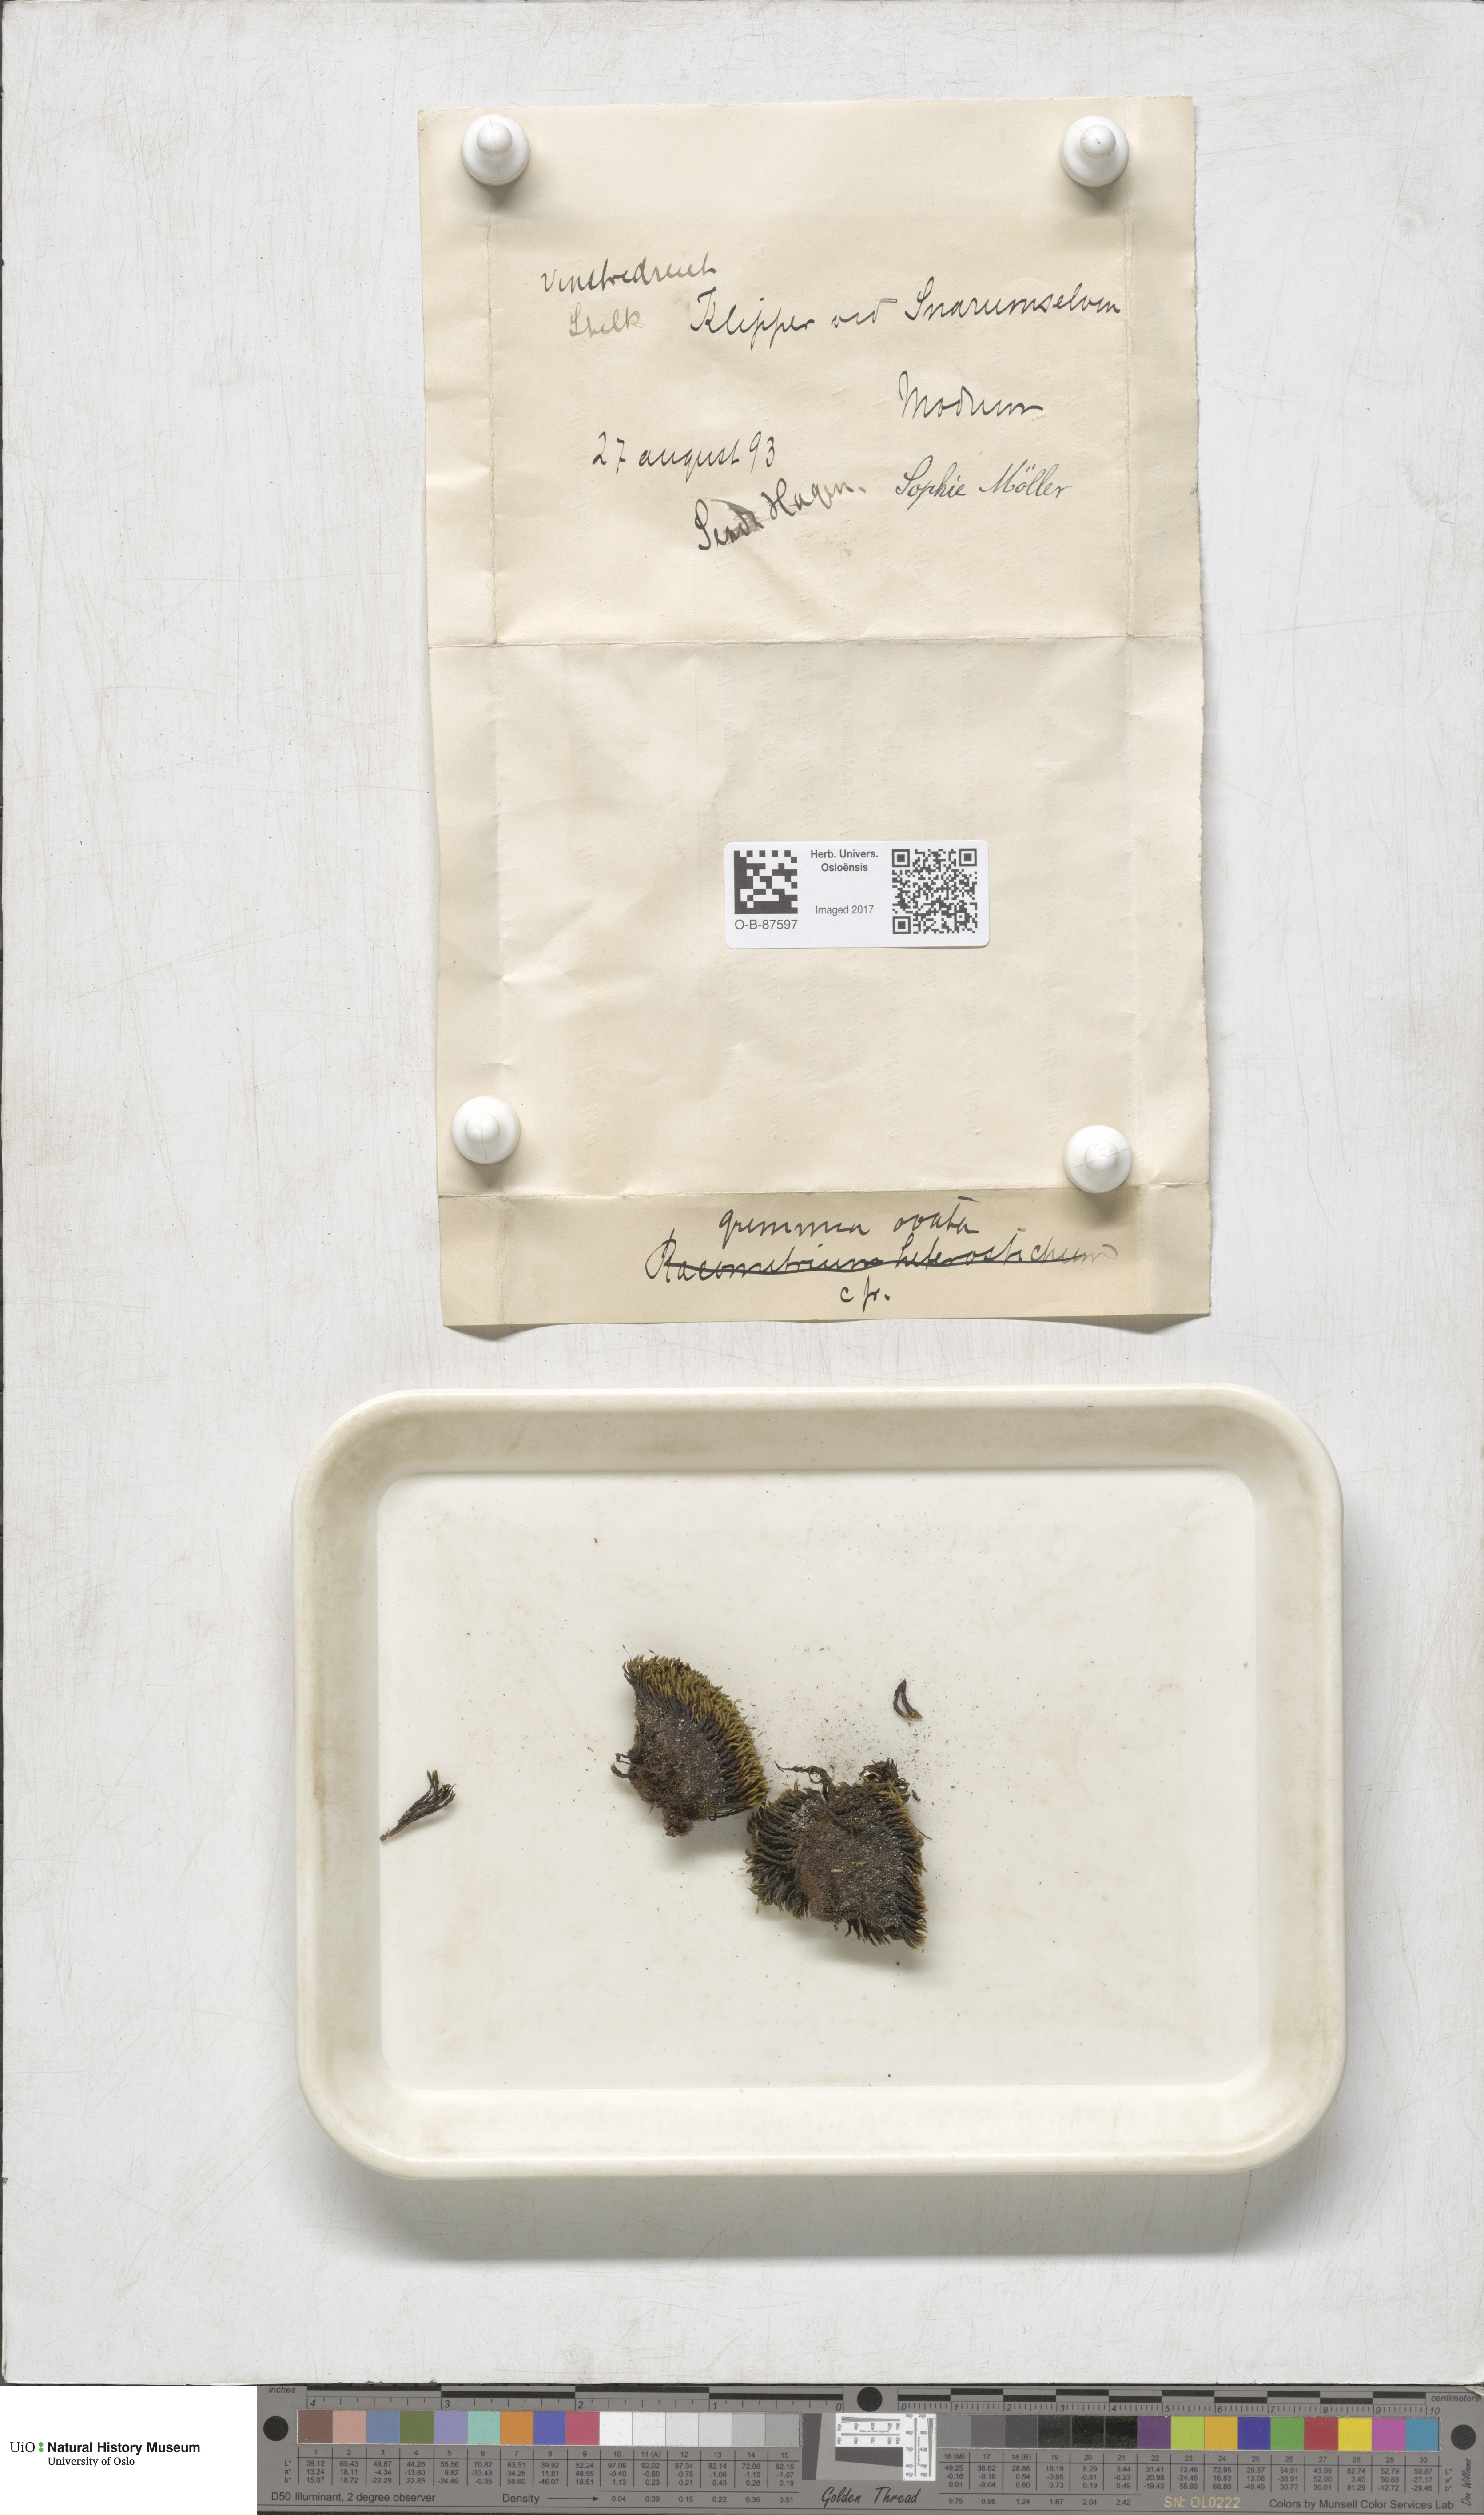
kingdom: Plantae
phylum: Bryophyta
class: Bryopsida
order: Grimmiales
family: Grimmiaceae
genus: Grimmia
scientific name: Grimmia ovalis
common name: Oval grimmia
